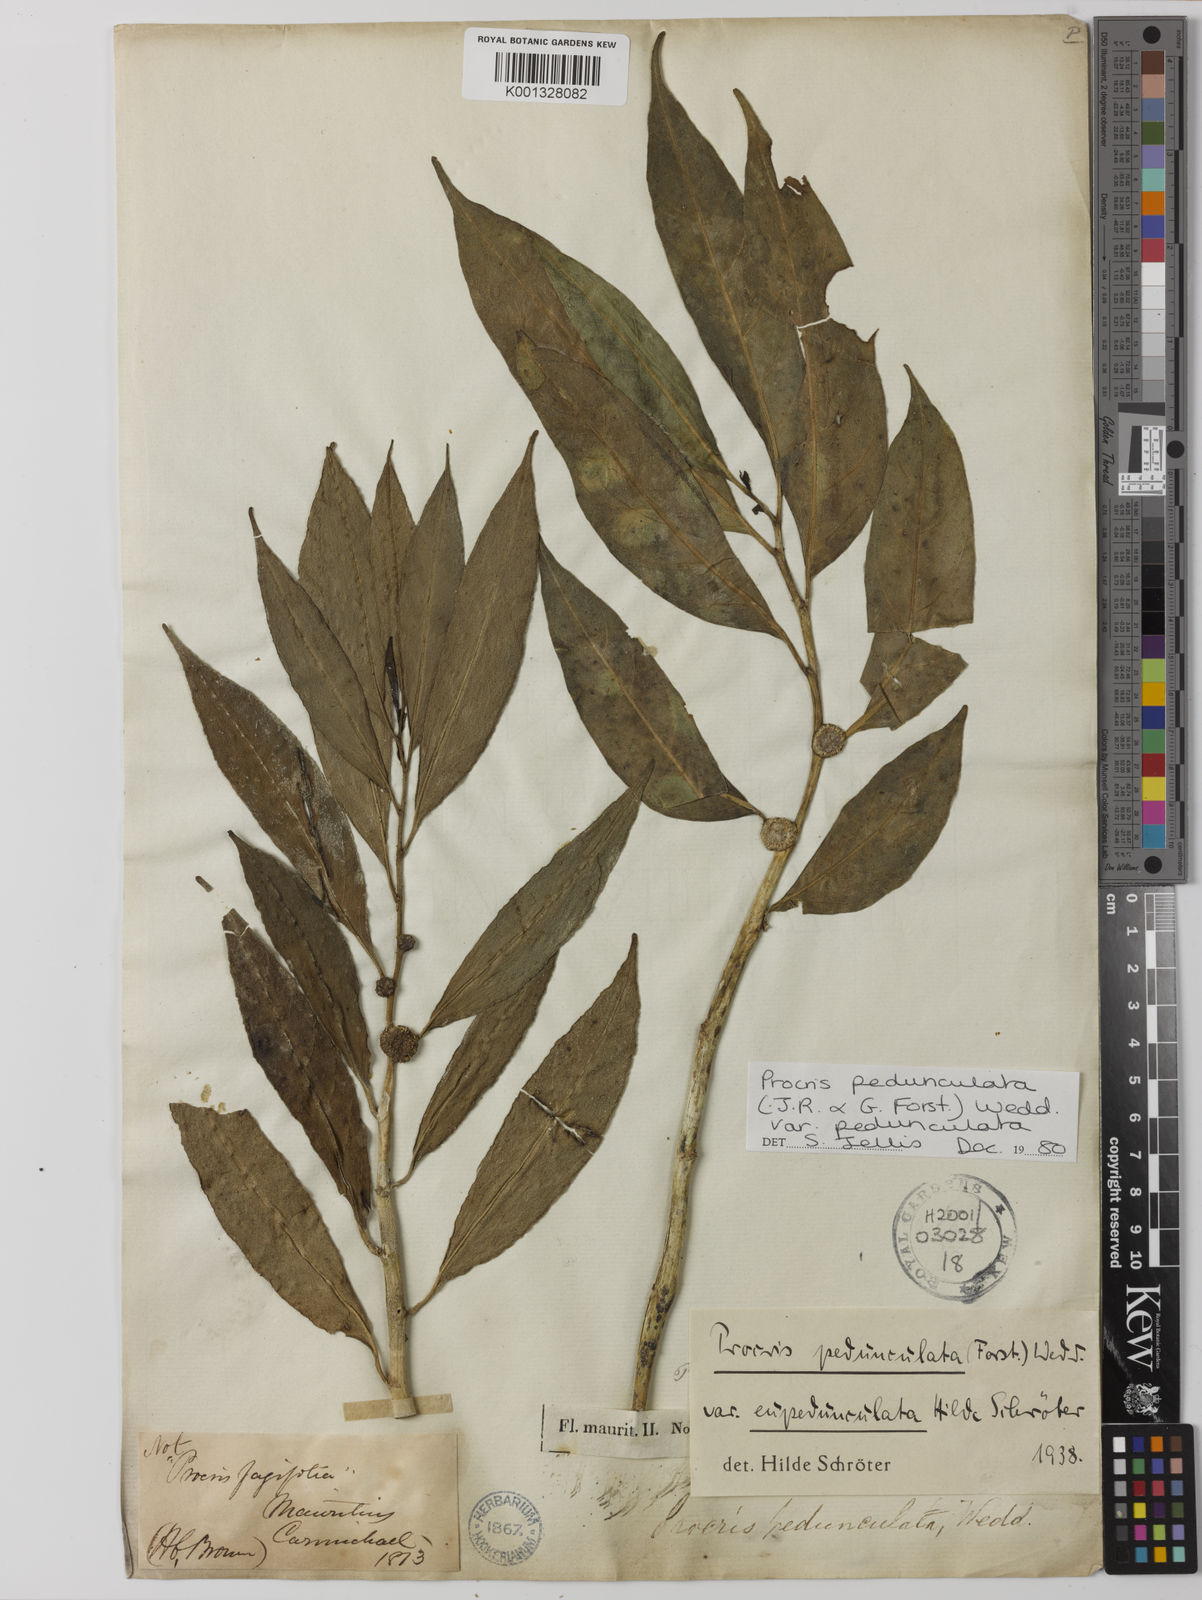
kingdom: Plantae
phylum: Tracheophyta
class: Magnoliopsida
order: Rosales
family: Urticaceae
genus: Procris
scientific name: Procris pedunculata
